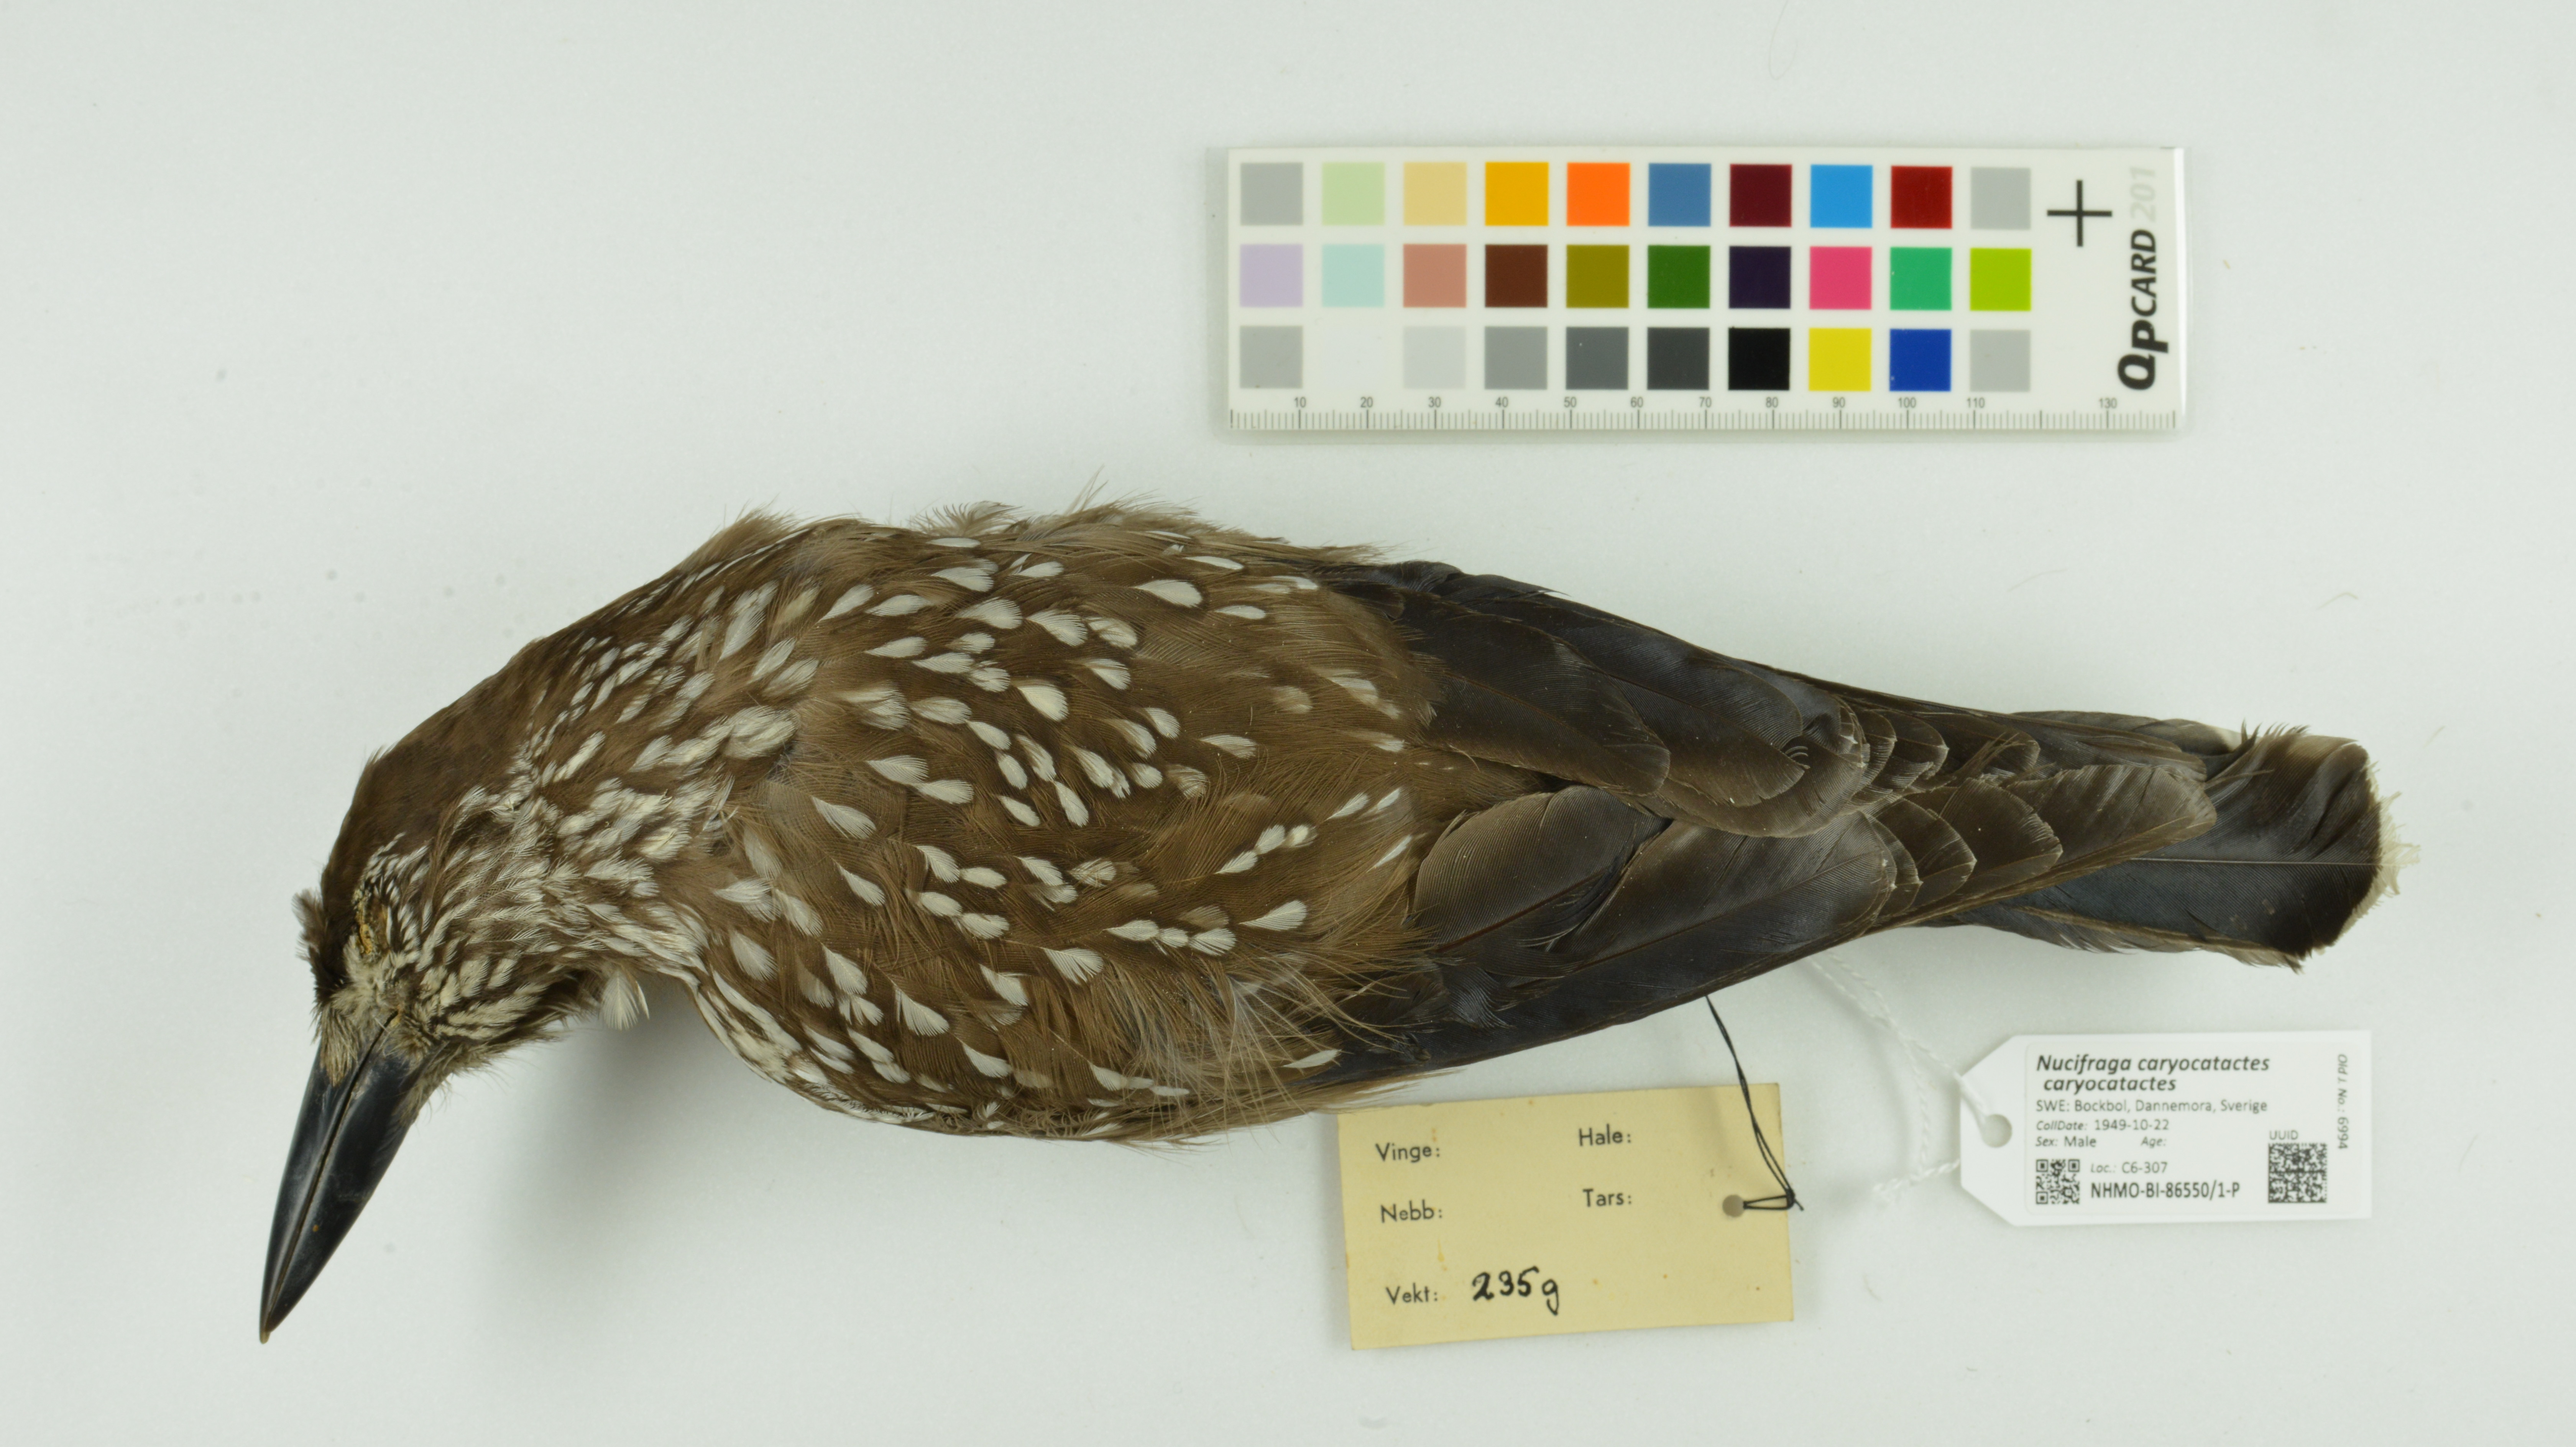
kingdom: Animalia
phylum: Chordata
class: Aves
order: Passeriformes
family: Corvidae
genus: Nucifraga
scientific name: Nucifraga caryocatactes
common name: Spotted nutcracker
